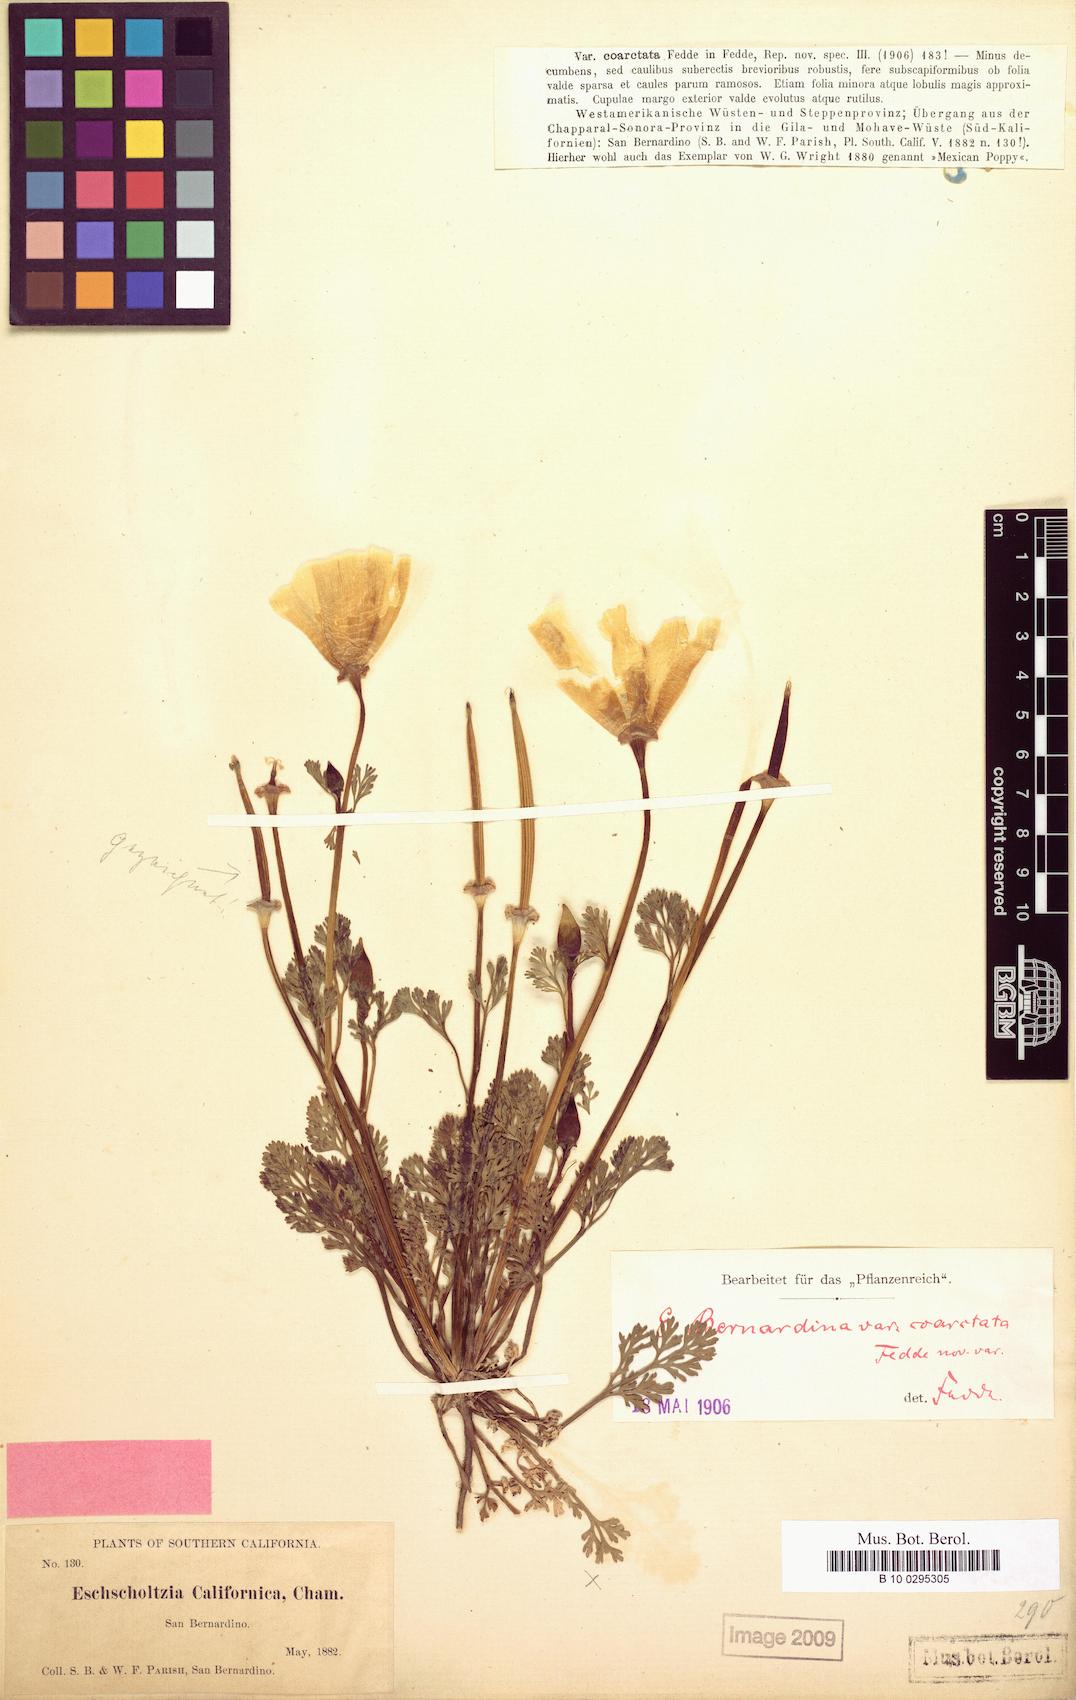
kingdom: Plantae
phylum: Tracheophyta
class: Magnoliopsida
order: Ranunculales
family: Papaveraceae
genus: Eschscholzia
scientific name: Eschscholzia californica
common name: California poppy
